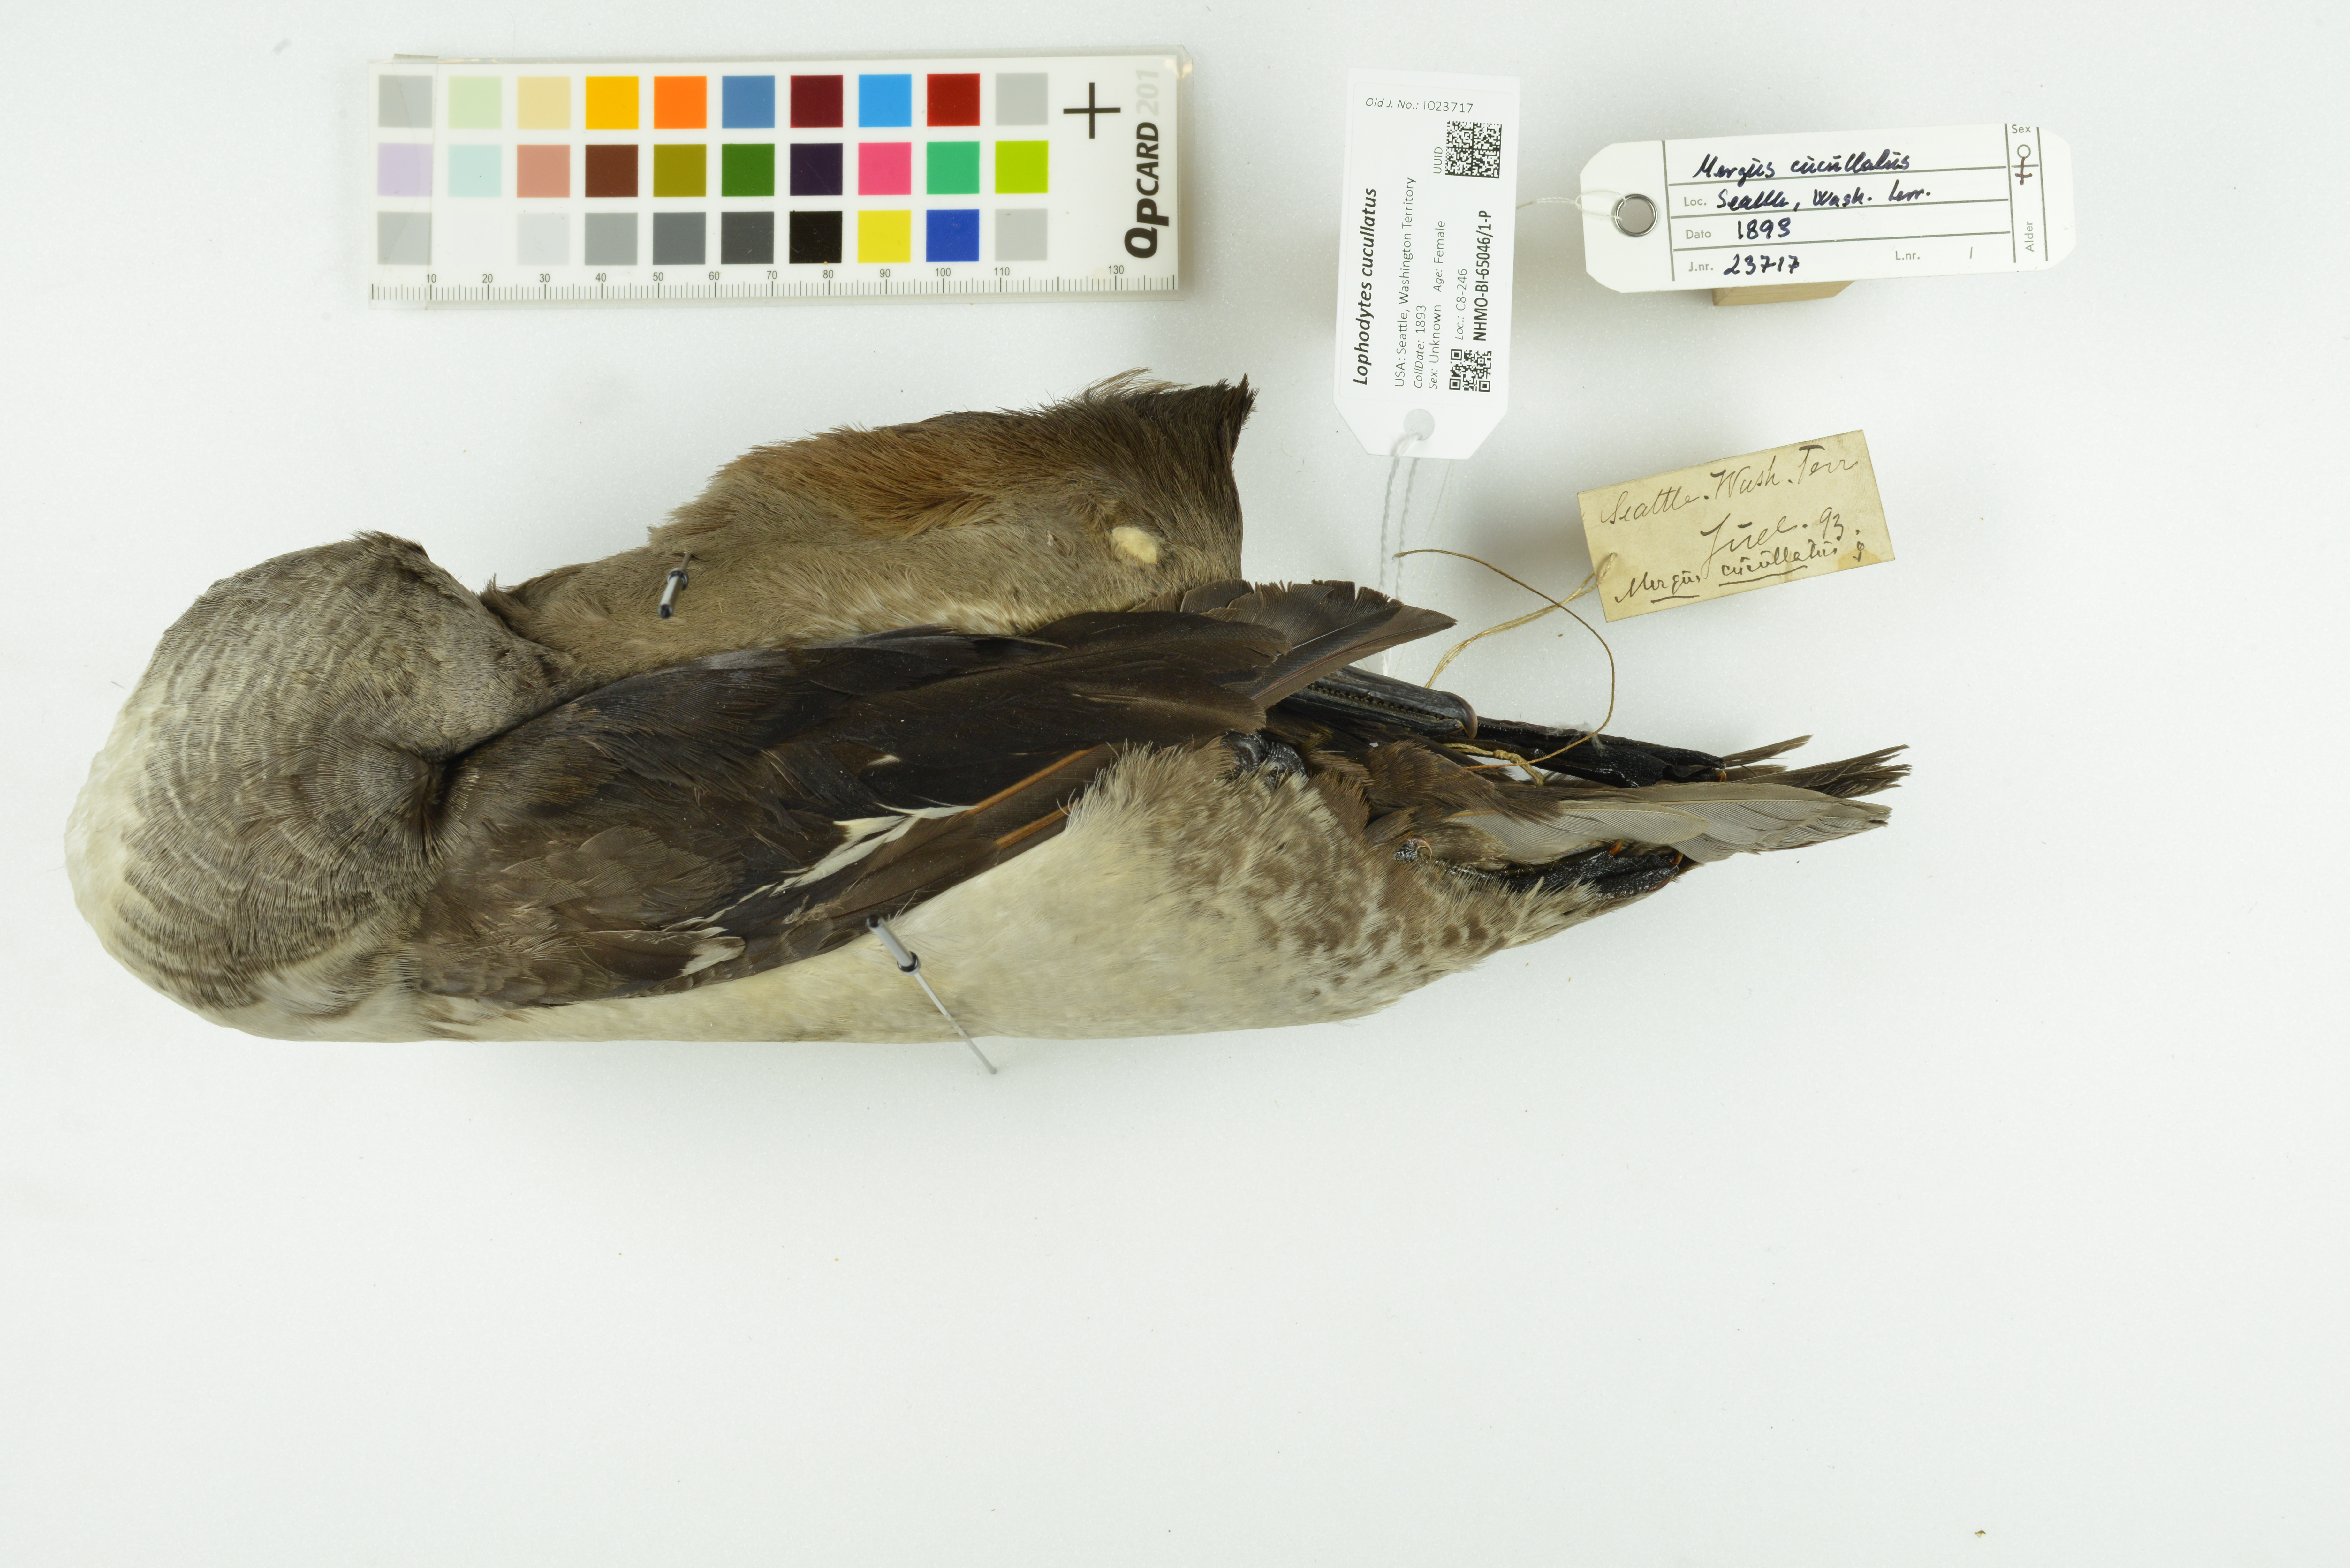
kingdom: Animalia
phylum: Chordata
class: Aves
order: Anseriformes
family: Anatidae
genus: Lophodytes
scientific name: Lophodytes cucullatus
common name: Hooded merganser
